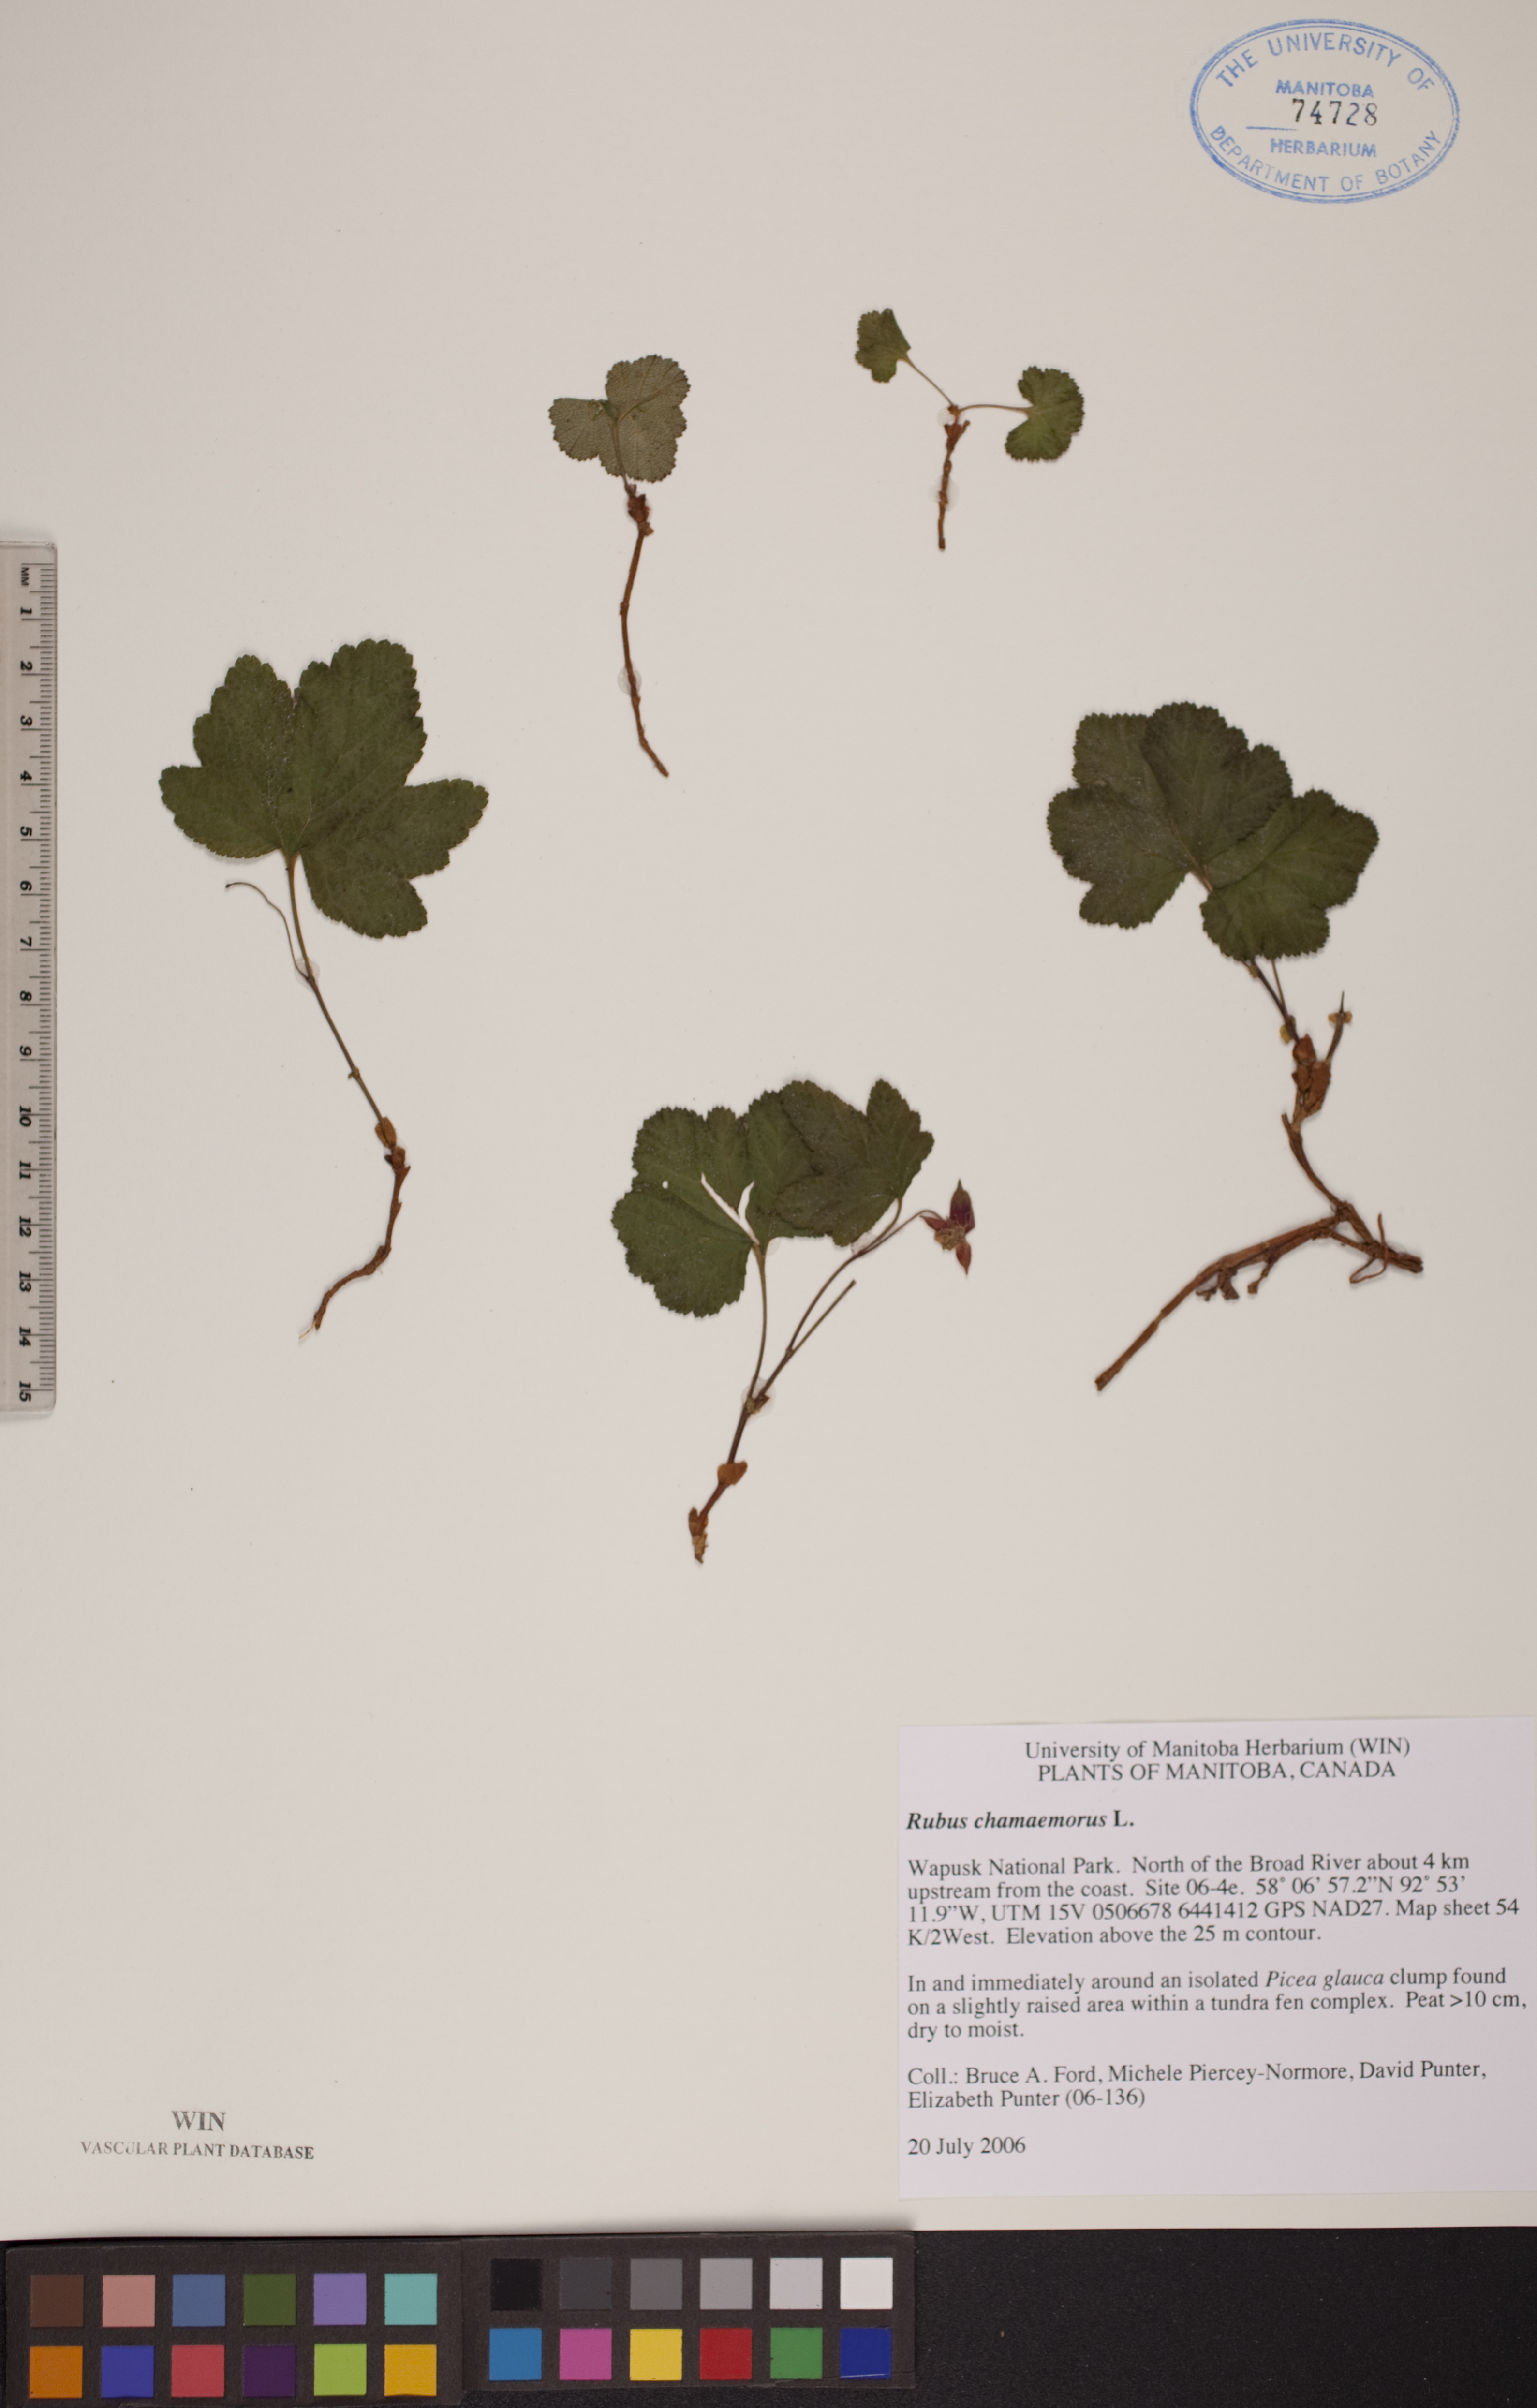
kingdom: Plantae
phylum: Tracheophyta
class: Magnoliopsida
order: Rosales
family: Rosaceae
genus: Rubus
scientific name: Rubus chamaemorus
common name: Cloudberry
